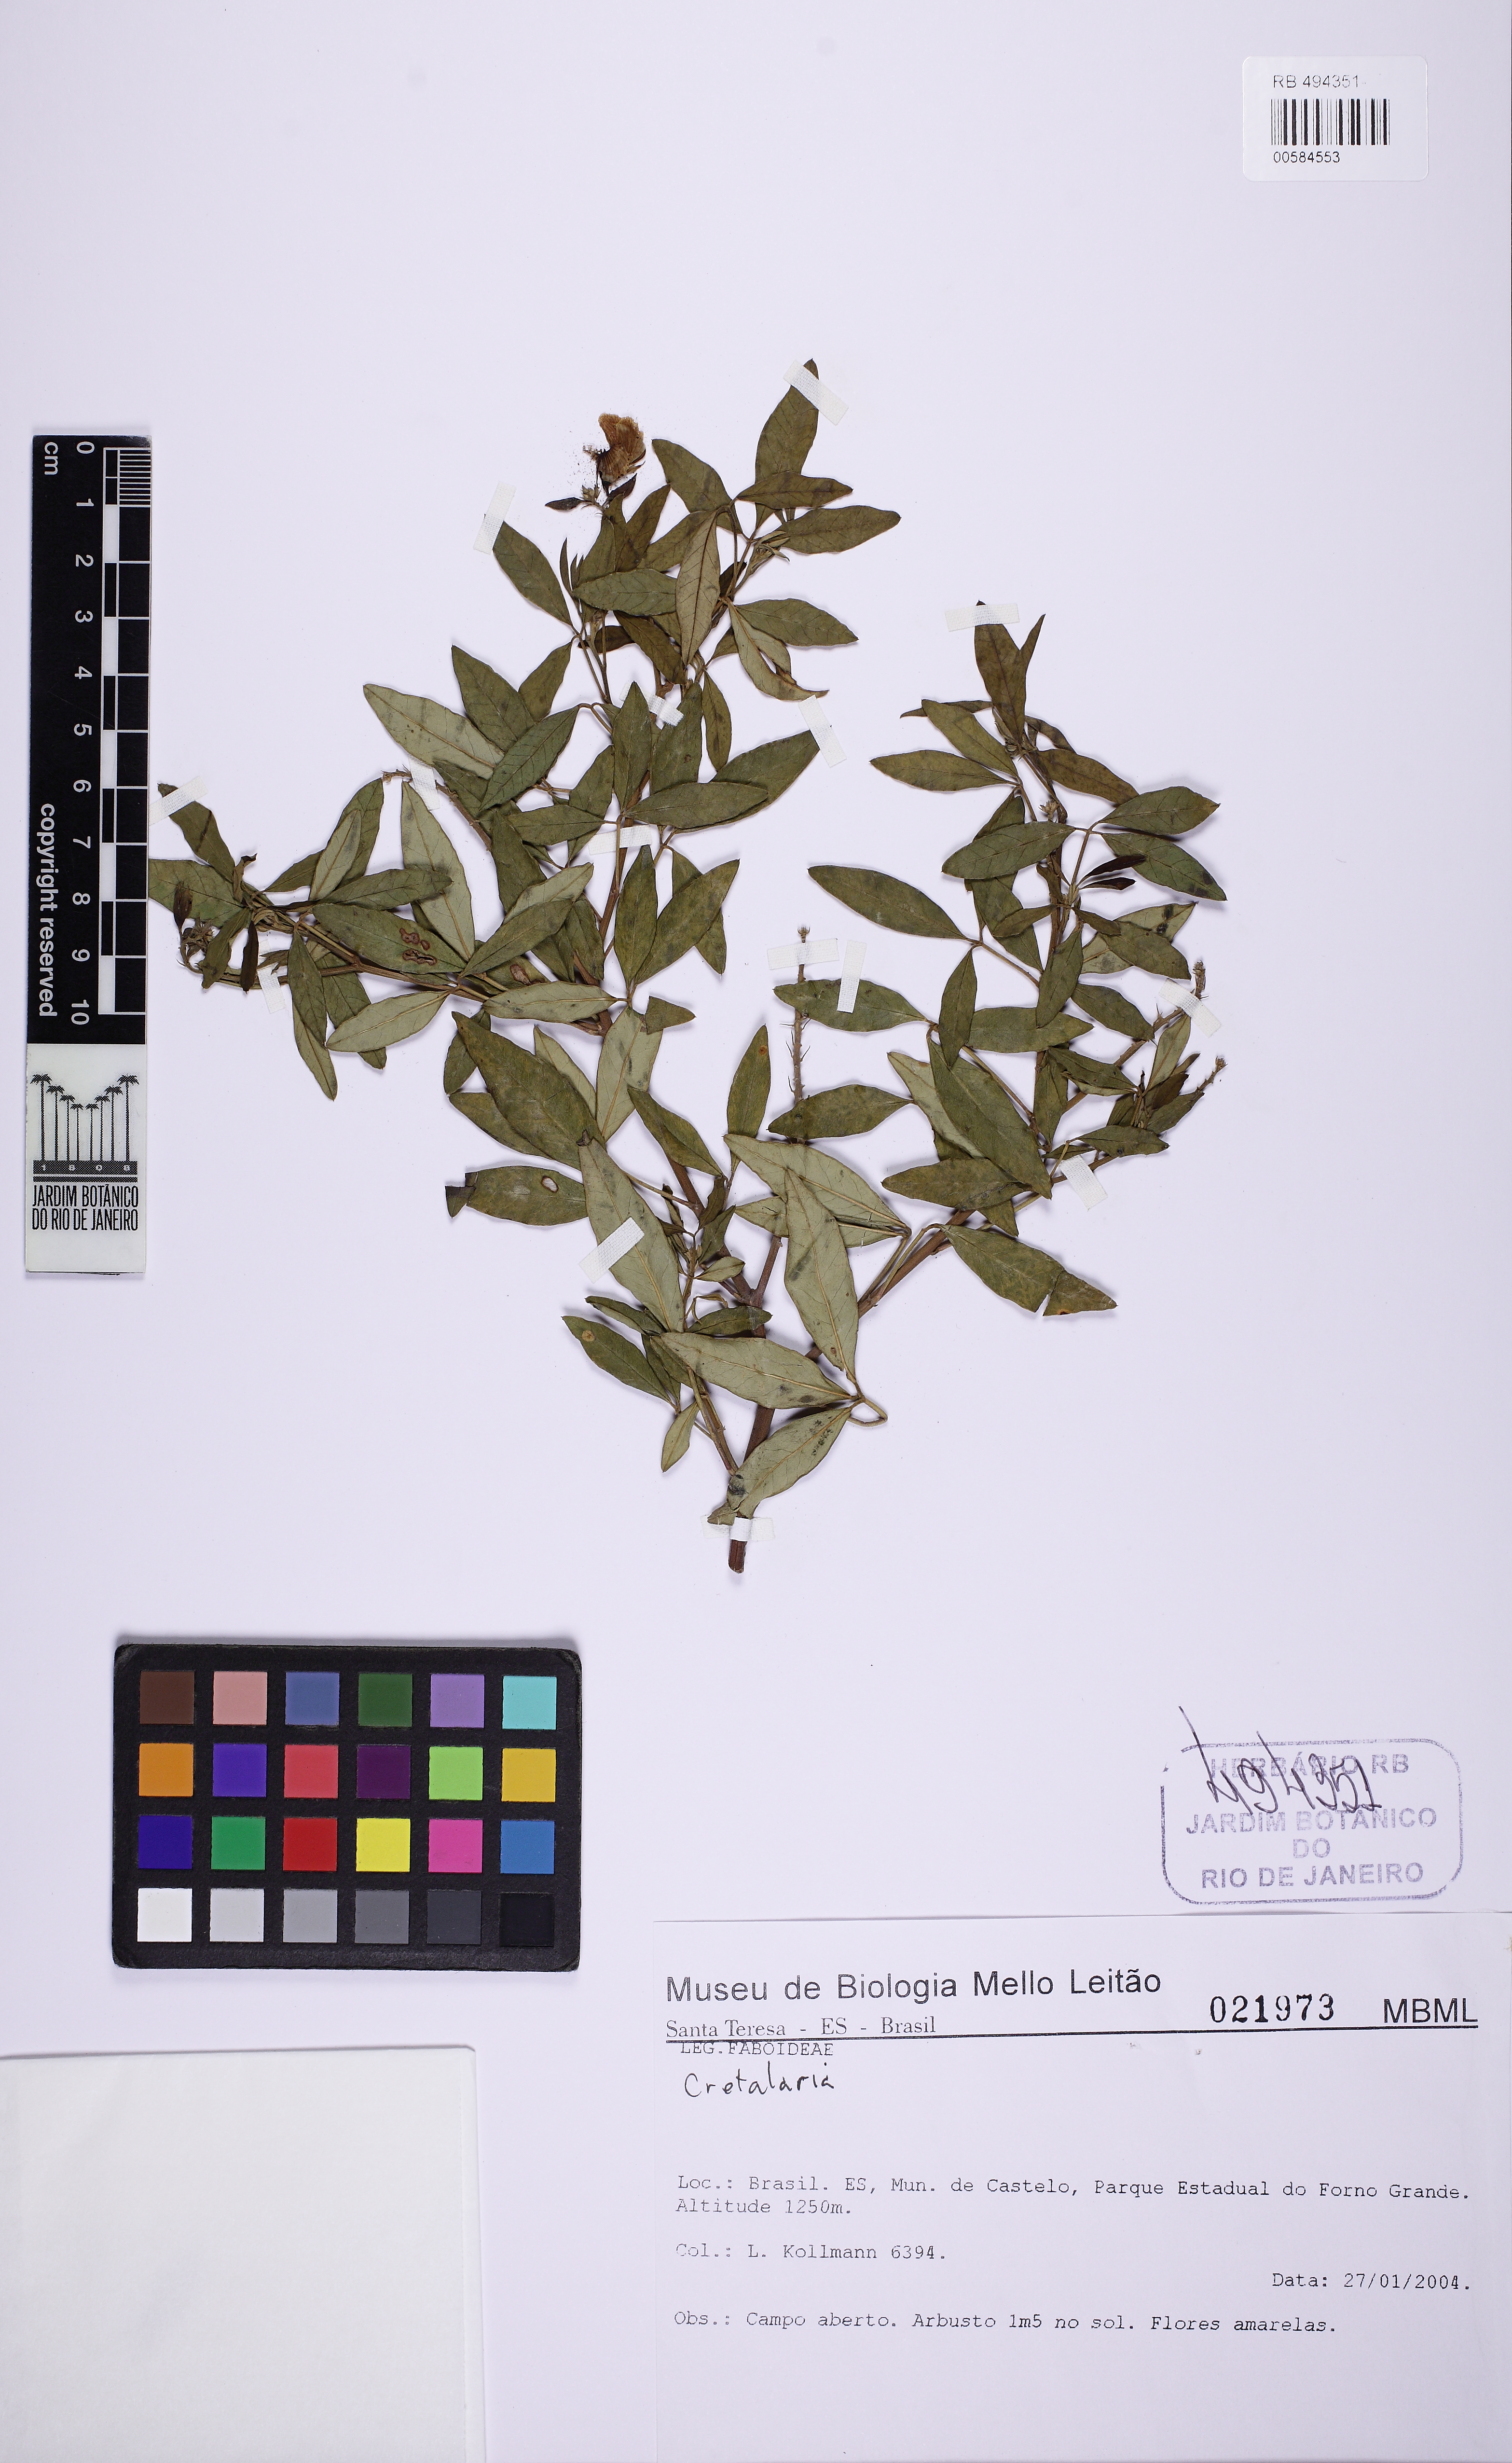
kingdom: Plantae
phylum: Tracheophyta
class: Magnoliopsida
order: Fabales
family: Fabaceae
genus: Crotalaria
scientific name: Crotalaria
